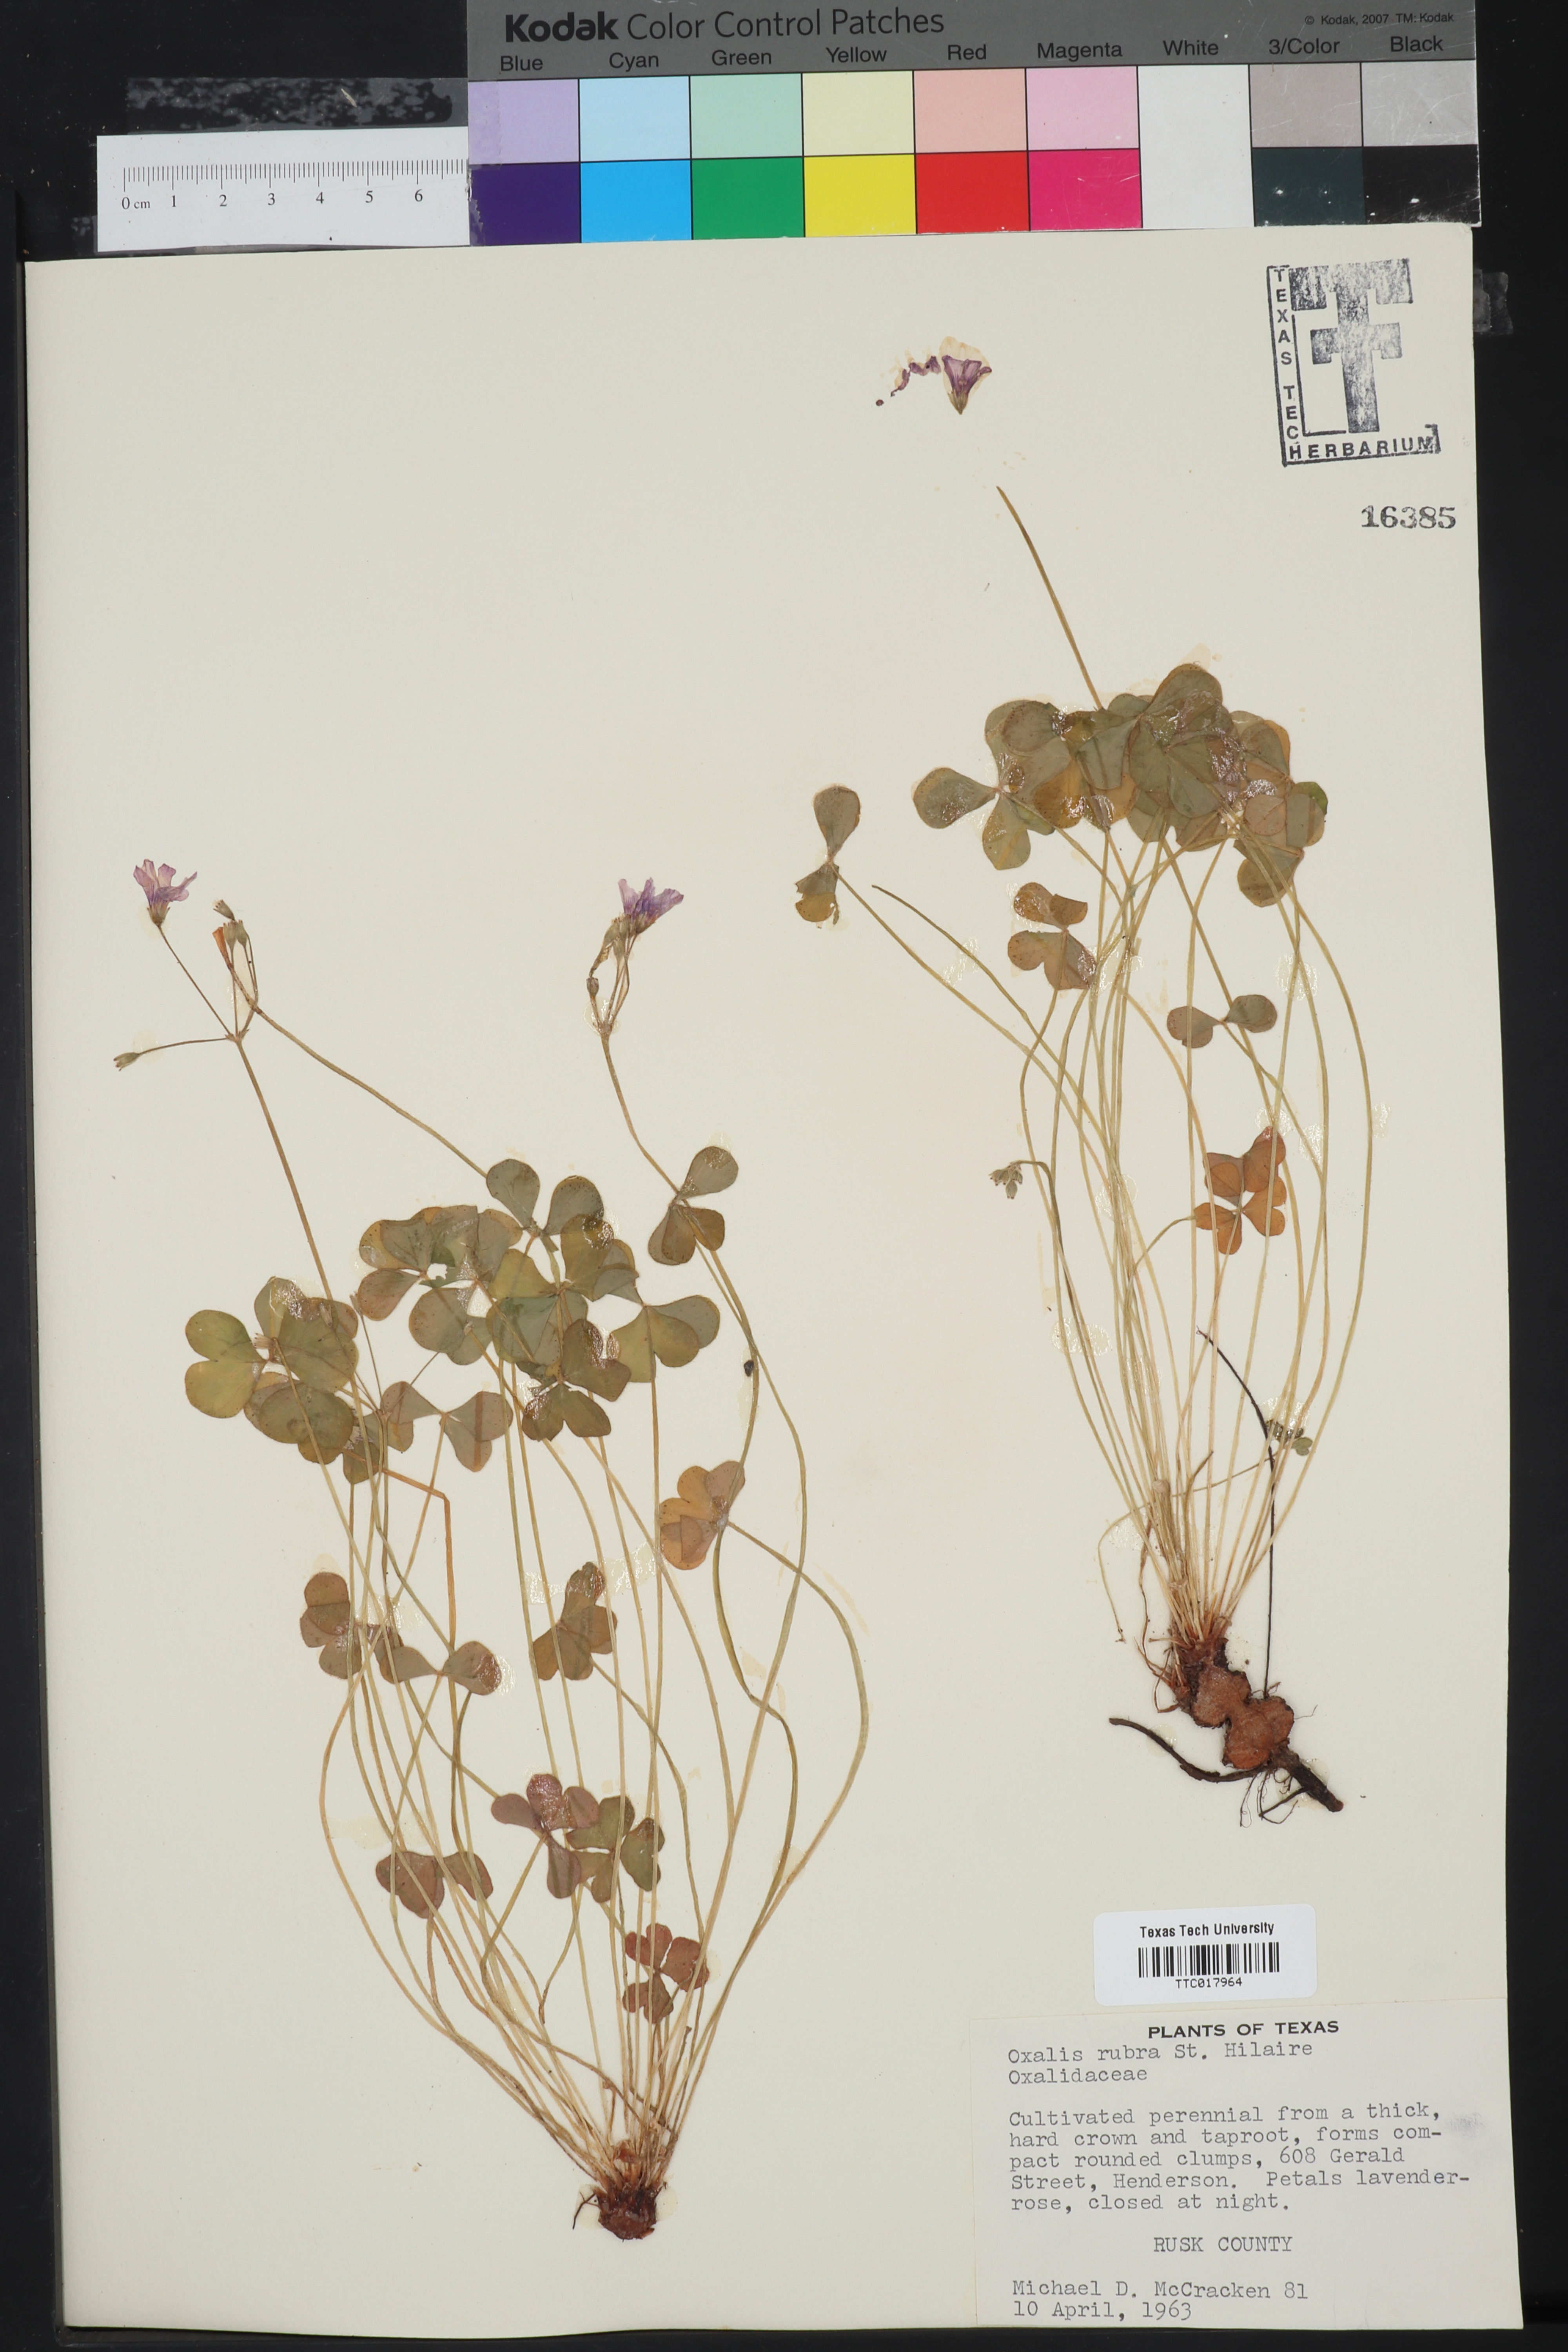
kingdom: Plantae
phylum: Tracheophyta
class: Magnoliopsida
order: Oxalidales
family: Oxalidaceae
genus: Oxalis
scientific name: Oxalis articulata
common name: Pink-sorrel
